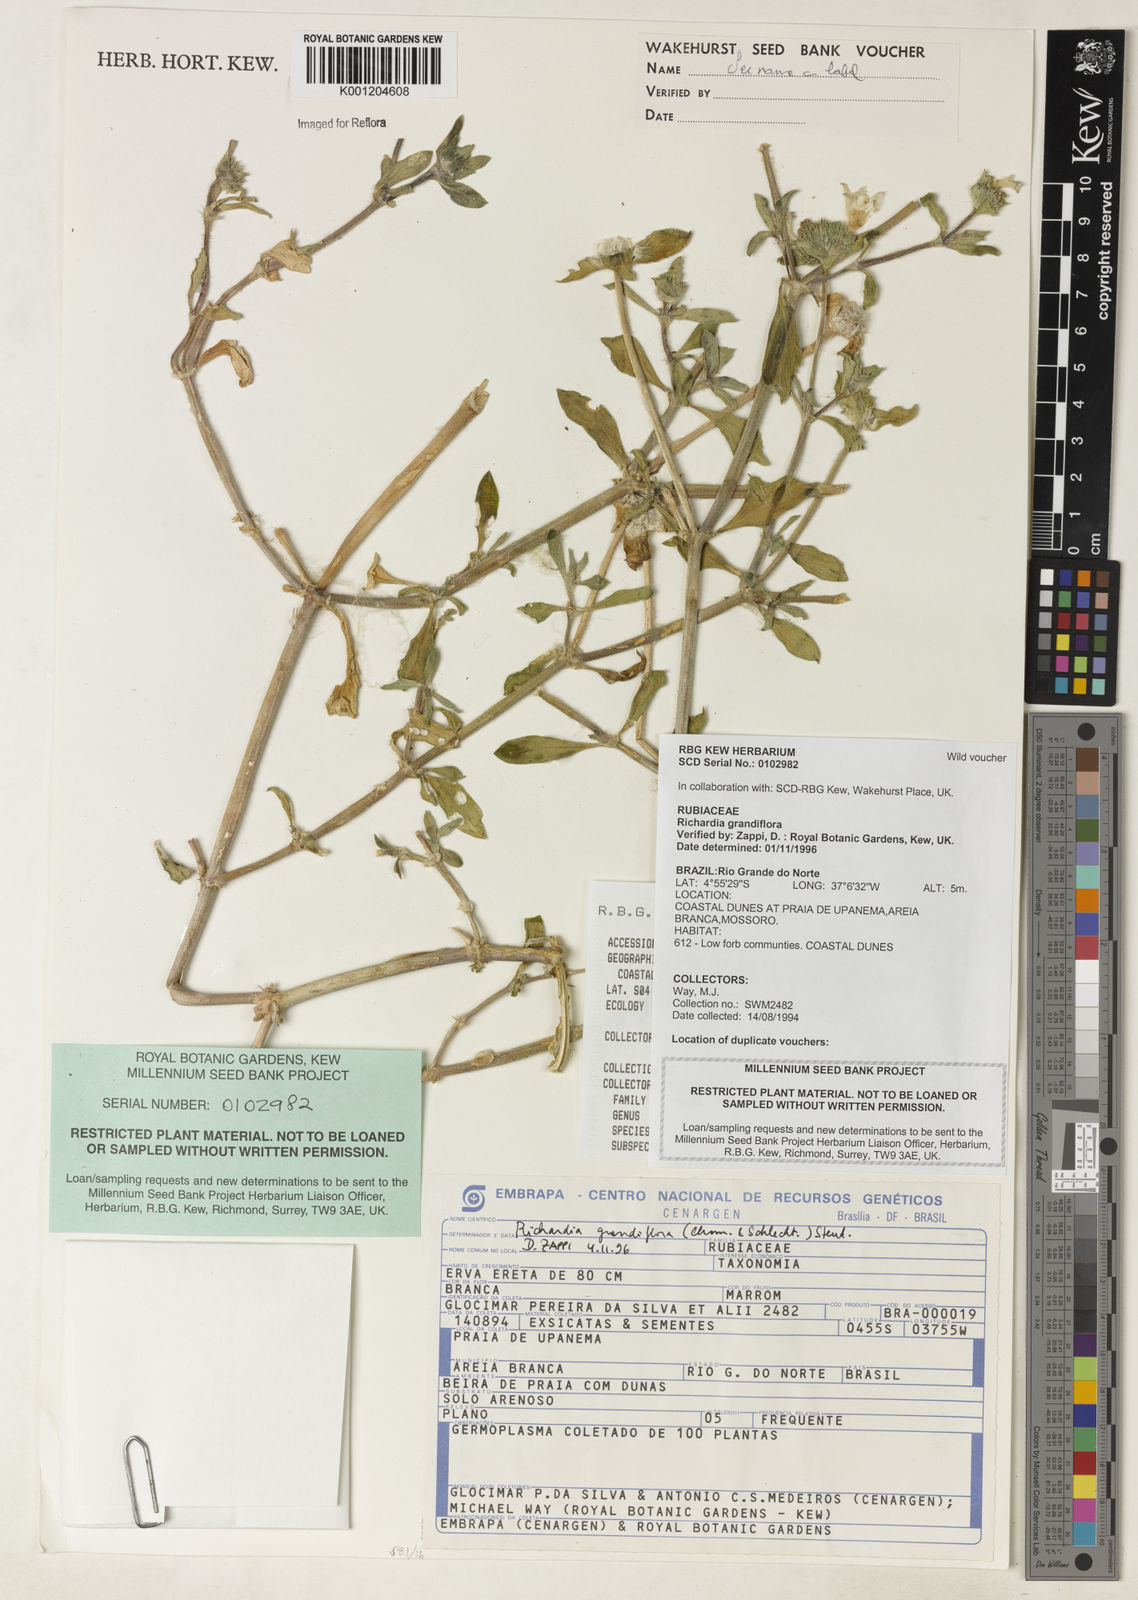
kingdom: Plantae
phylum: Tracheophyta
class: Magnoliopsida
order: Gentianales
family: Rubiaceae
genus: Richardia
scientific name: Richardia grandiflora
